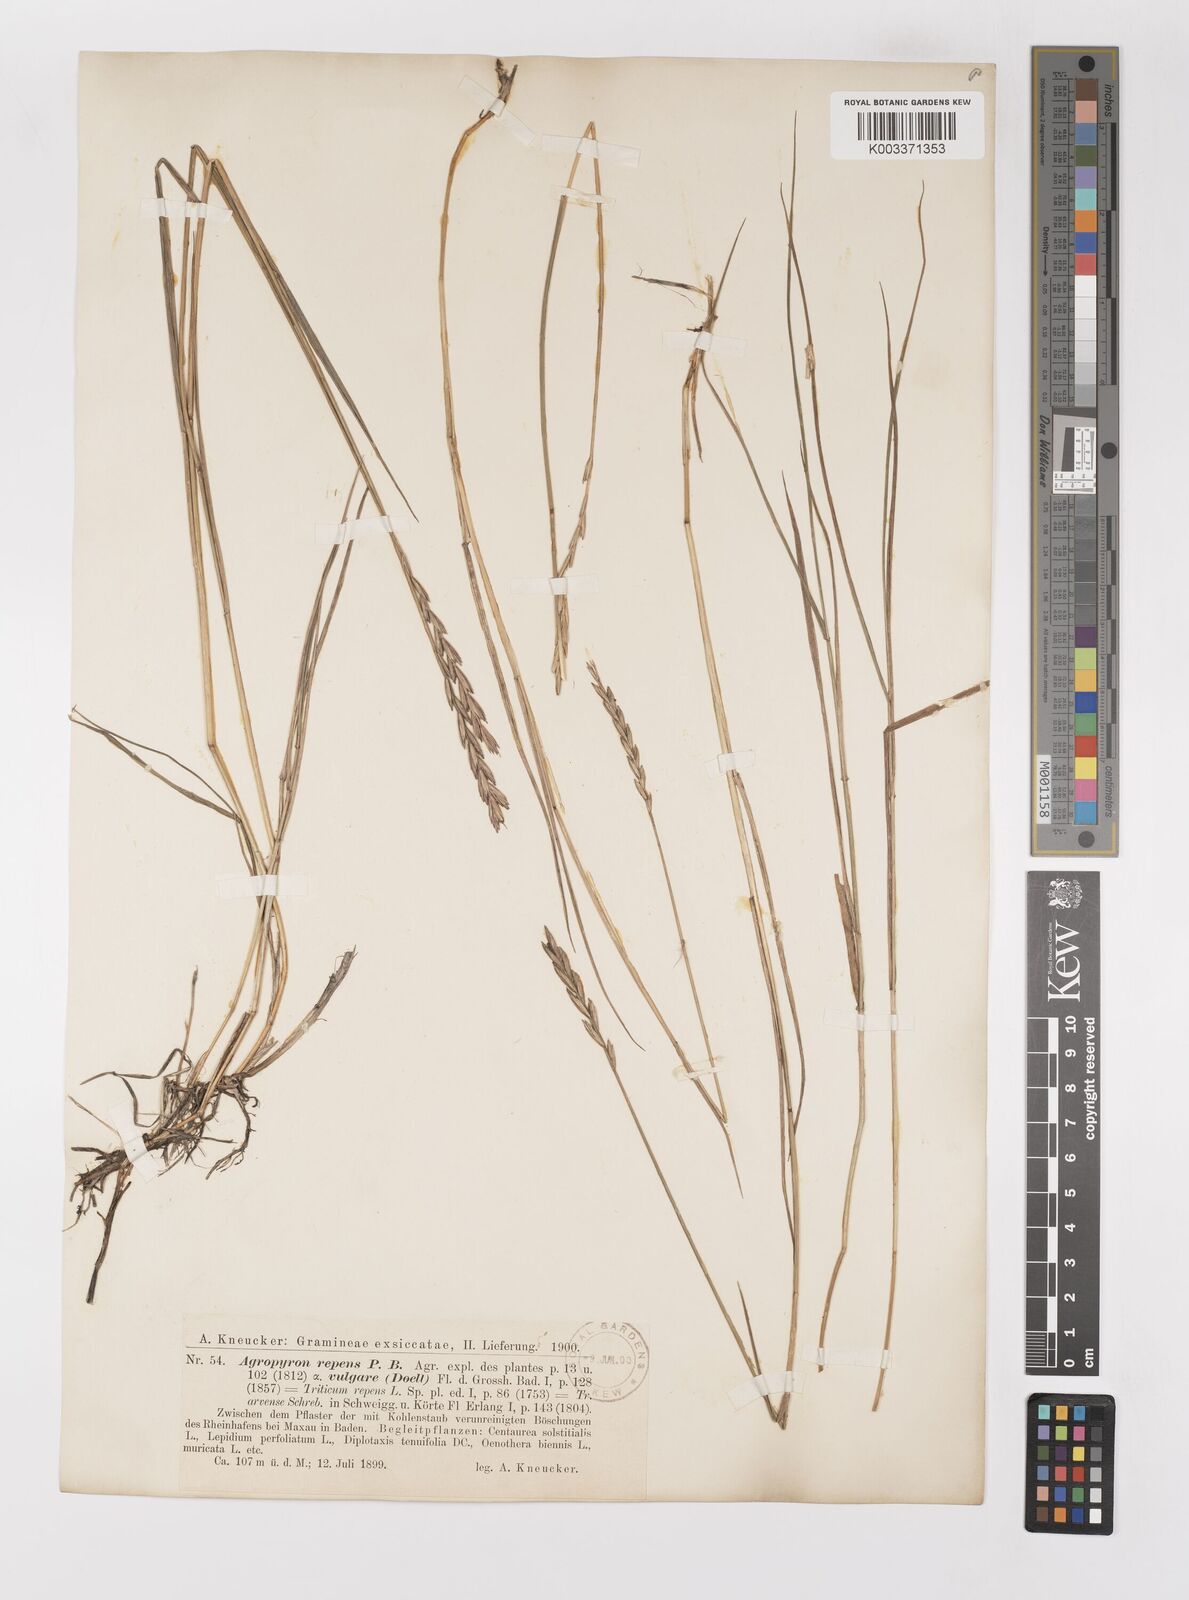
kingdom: Plantae
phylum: Tracheophyta
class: Liliopsida
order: Poales
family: Poaceae
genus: Elymus
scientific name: Elymus repens
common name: Quackgrass
